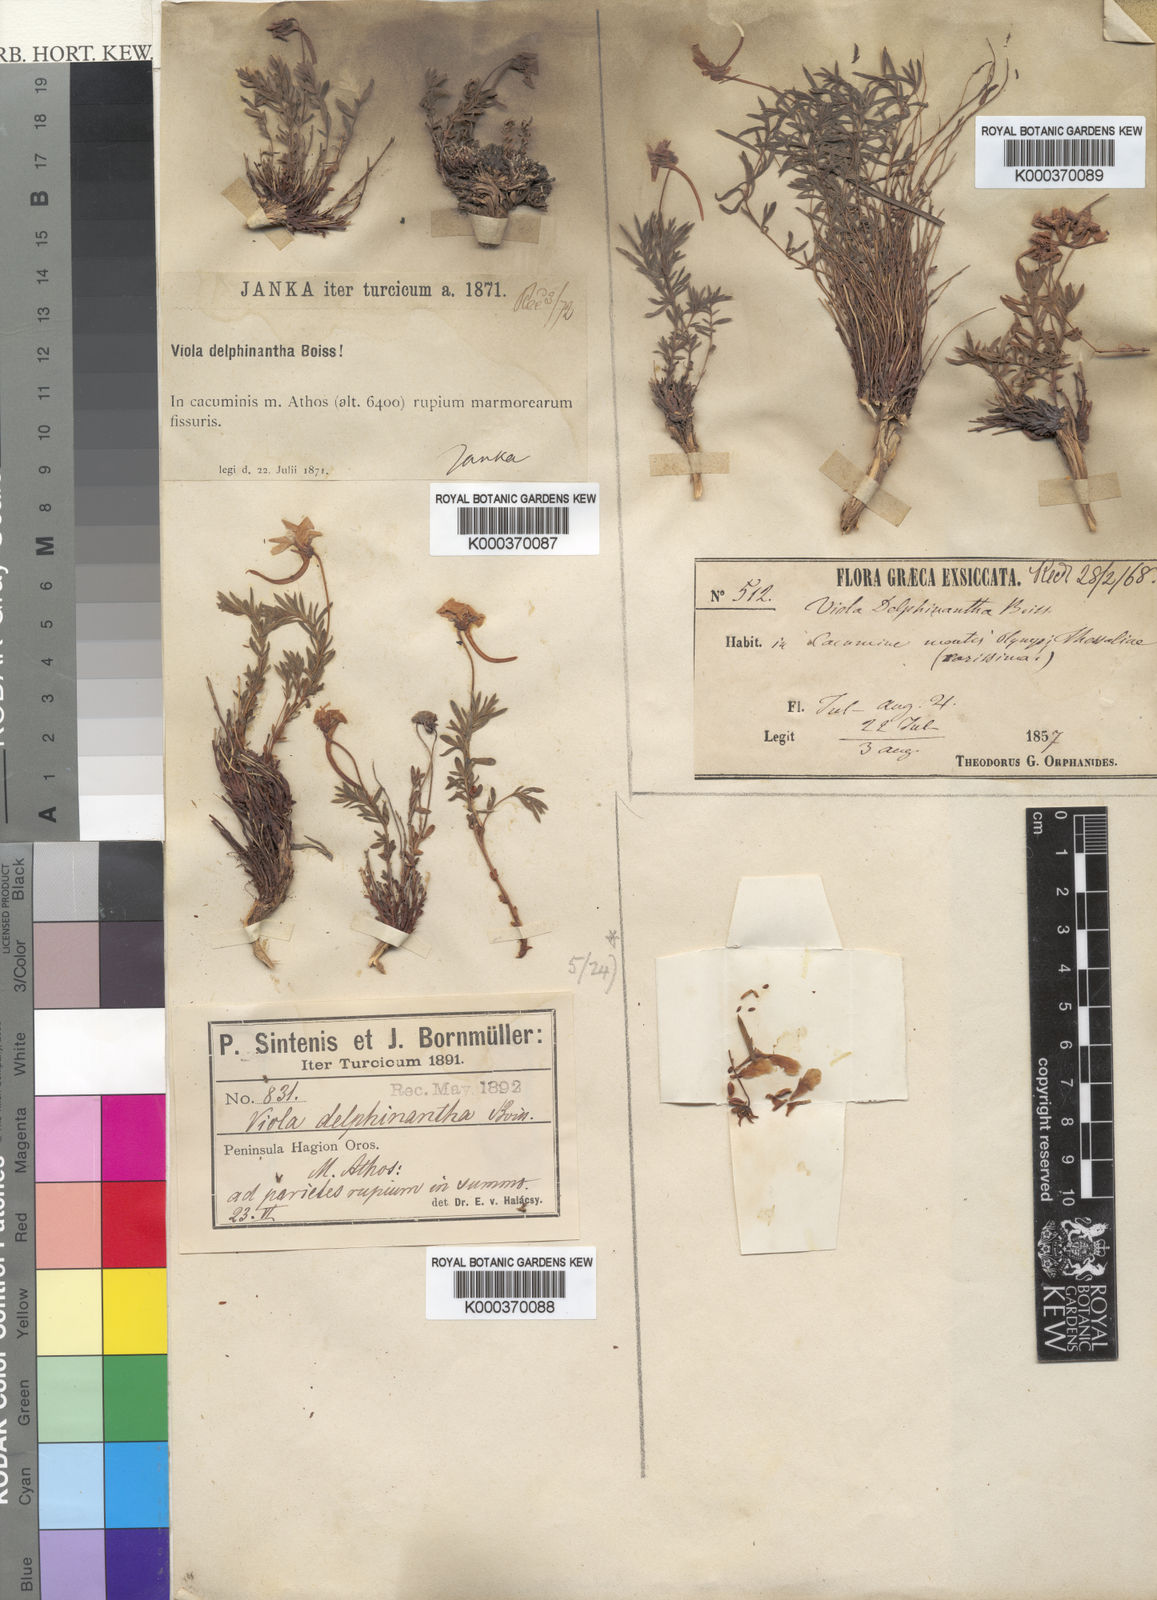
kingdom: Plantae
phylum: Tracheophyta
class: Magnoliopsida
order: Malpighiales
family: Violaceae
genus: Viola
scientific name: Viola delphinantha
